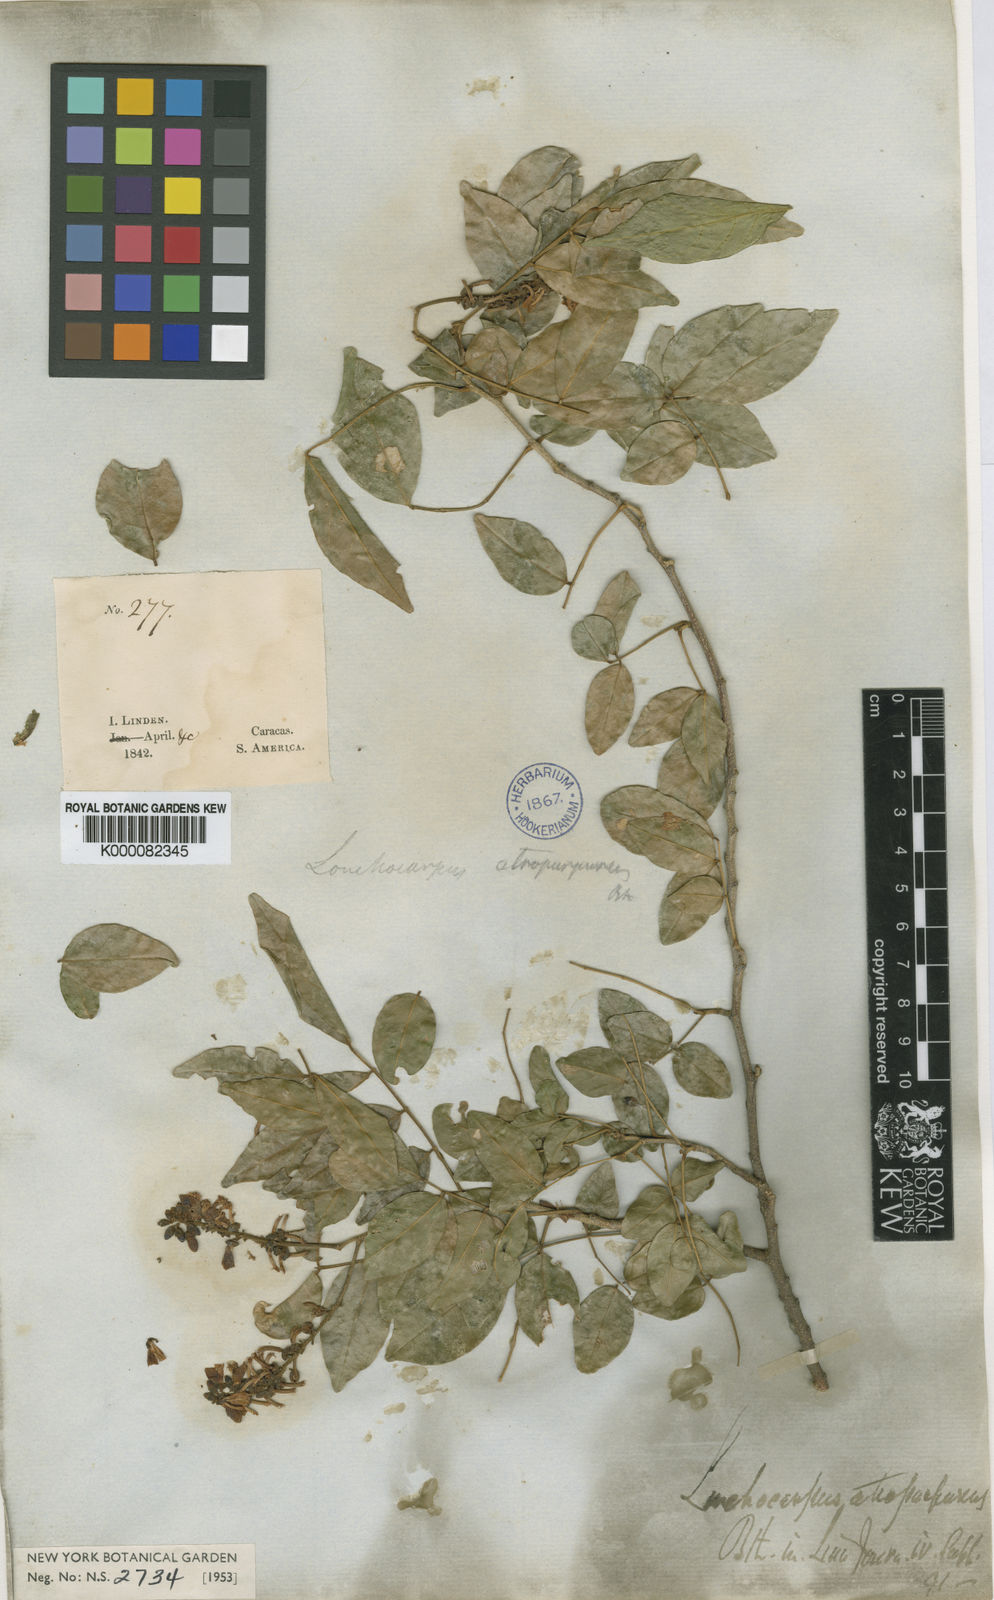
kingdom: Plantae
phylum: Tracheophyta
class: Magnoliopsida
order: Fabales
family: Fabaceae
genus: Lonchocarpus
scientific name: Lonchocarpus atropurpureus
